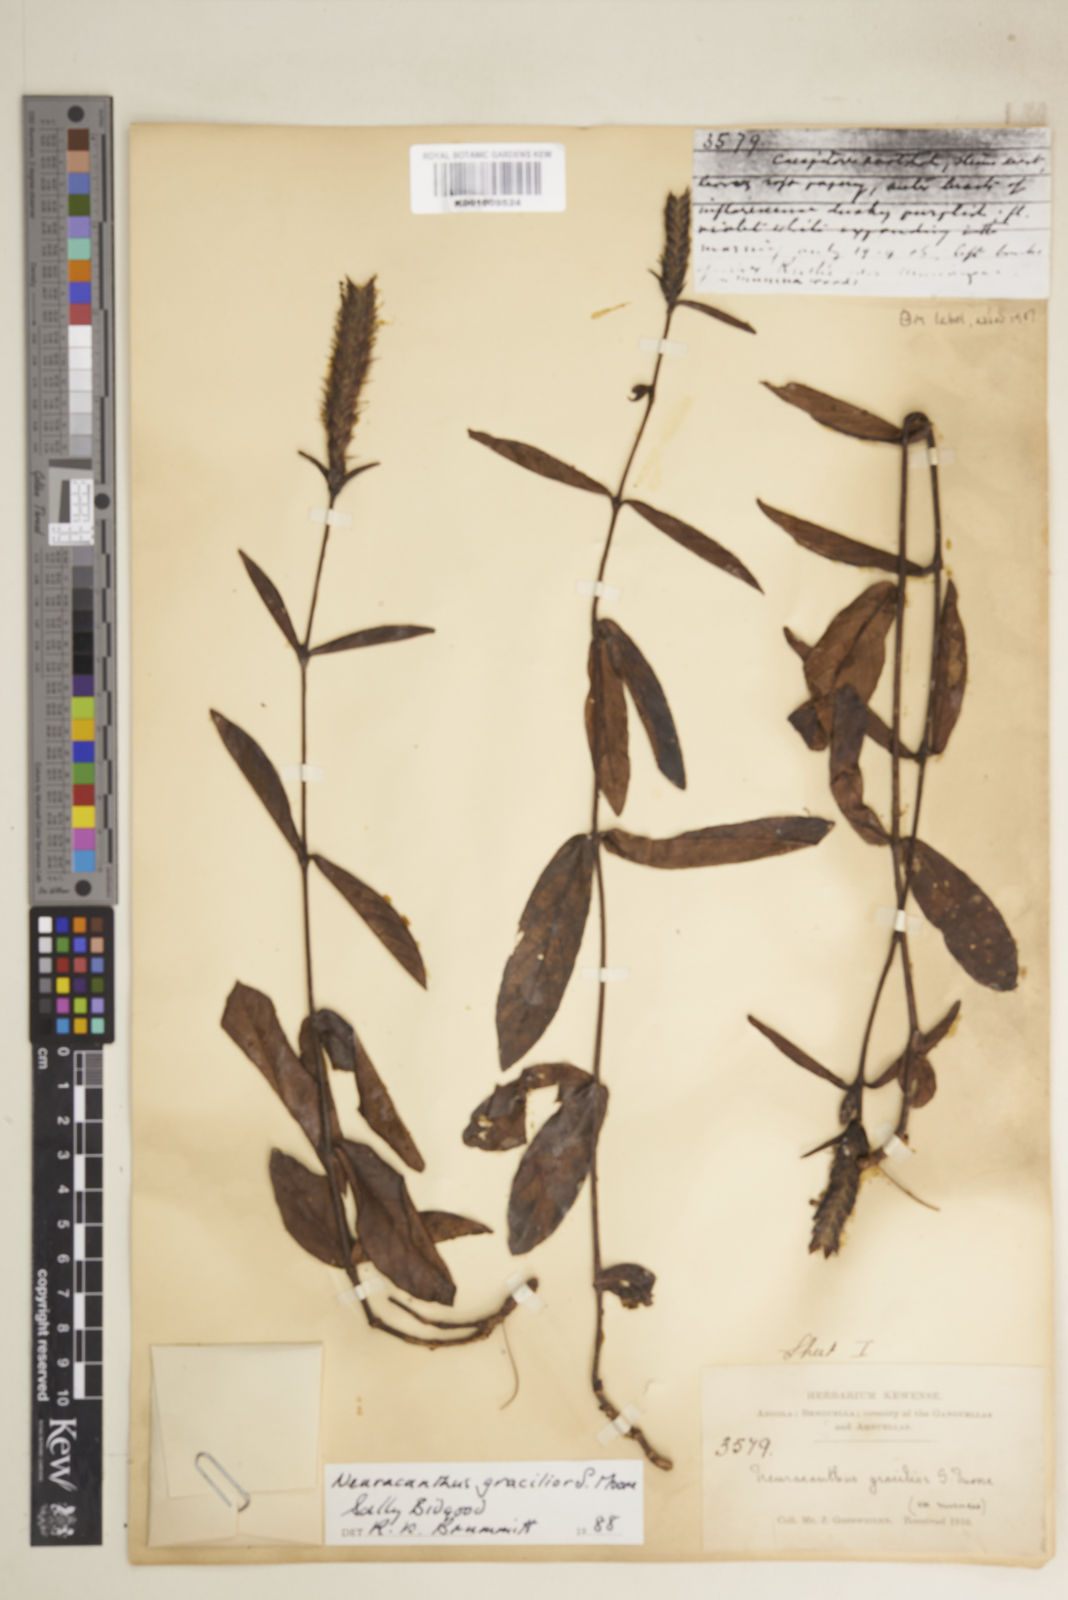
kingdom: Plantae
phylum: Tracheophyta
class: Magnoliopsida
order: Lamiales
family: Acanthaceae
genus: Neuracanthus
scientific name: Neuracanthus gracilior
